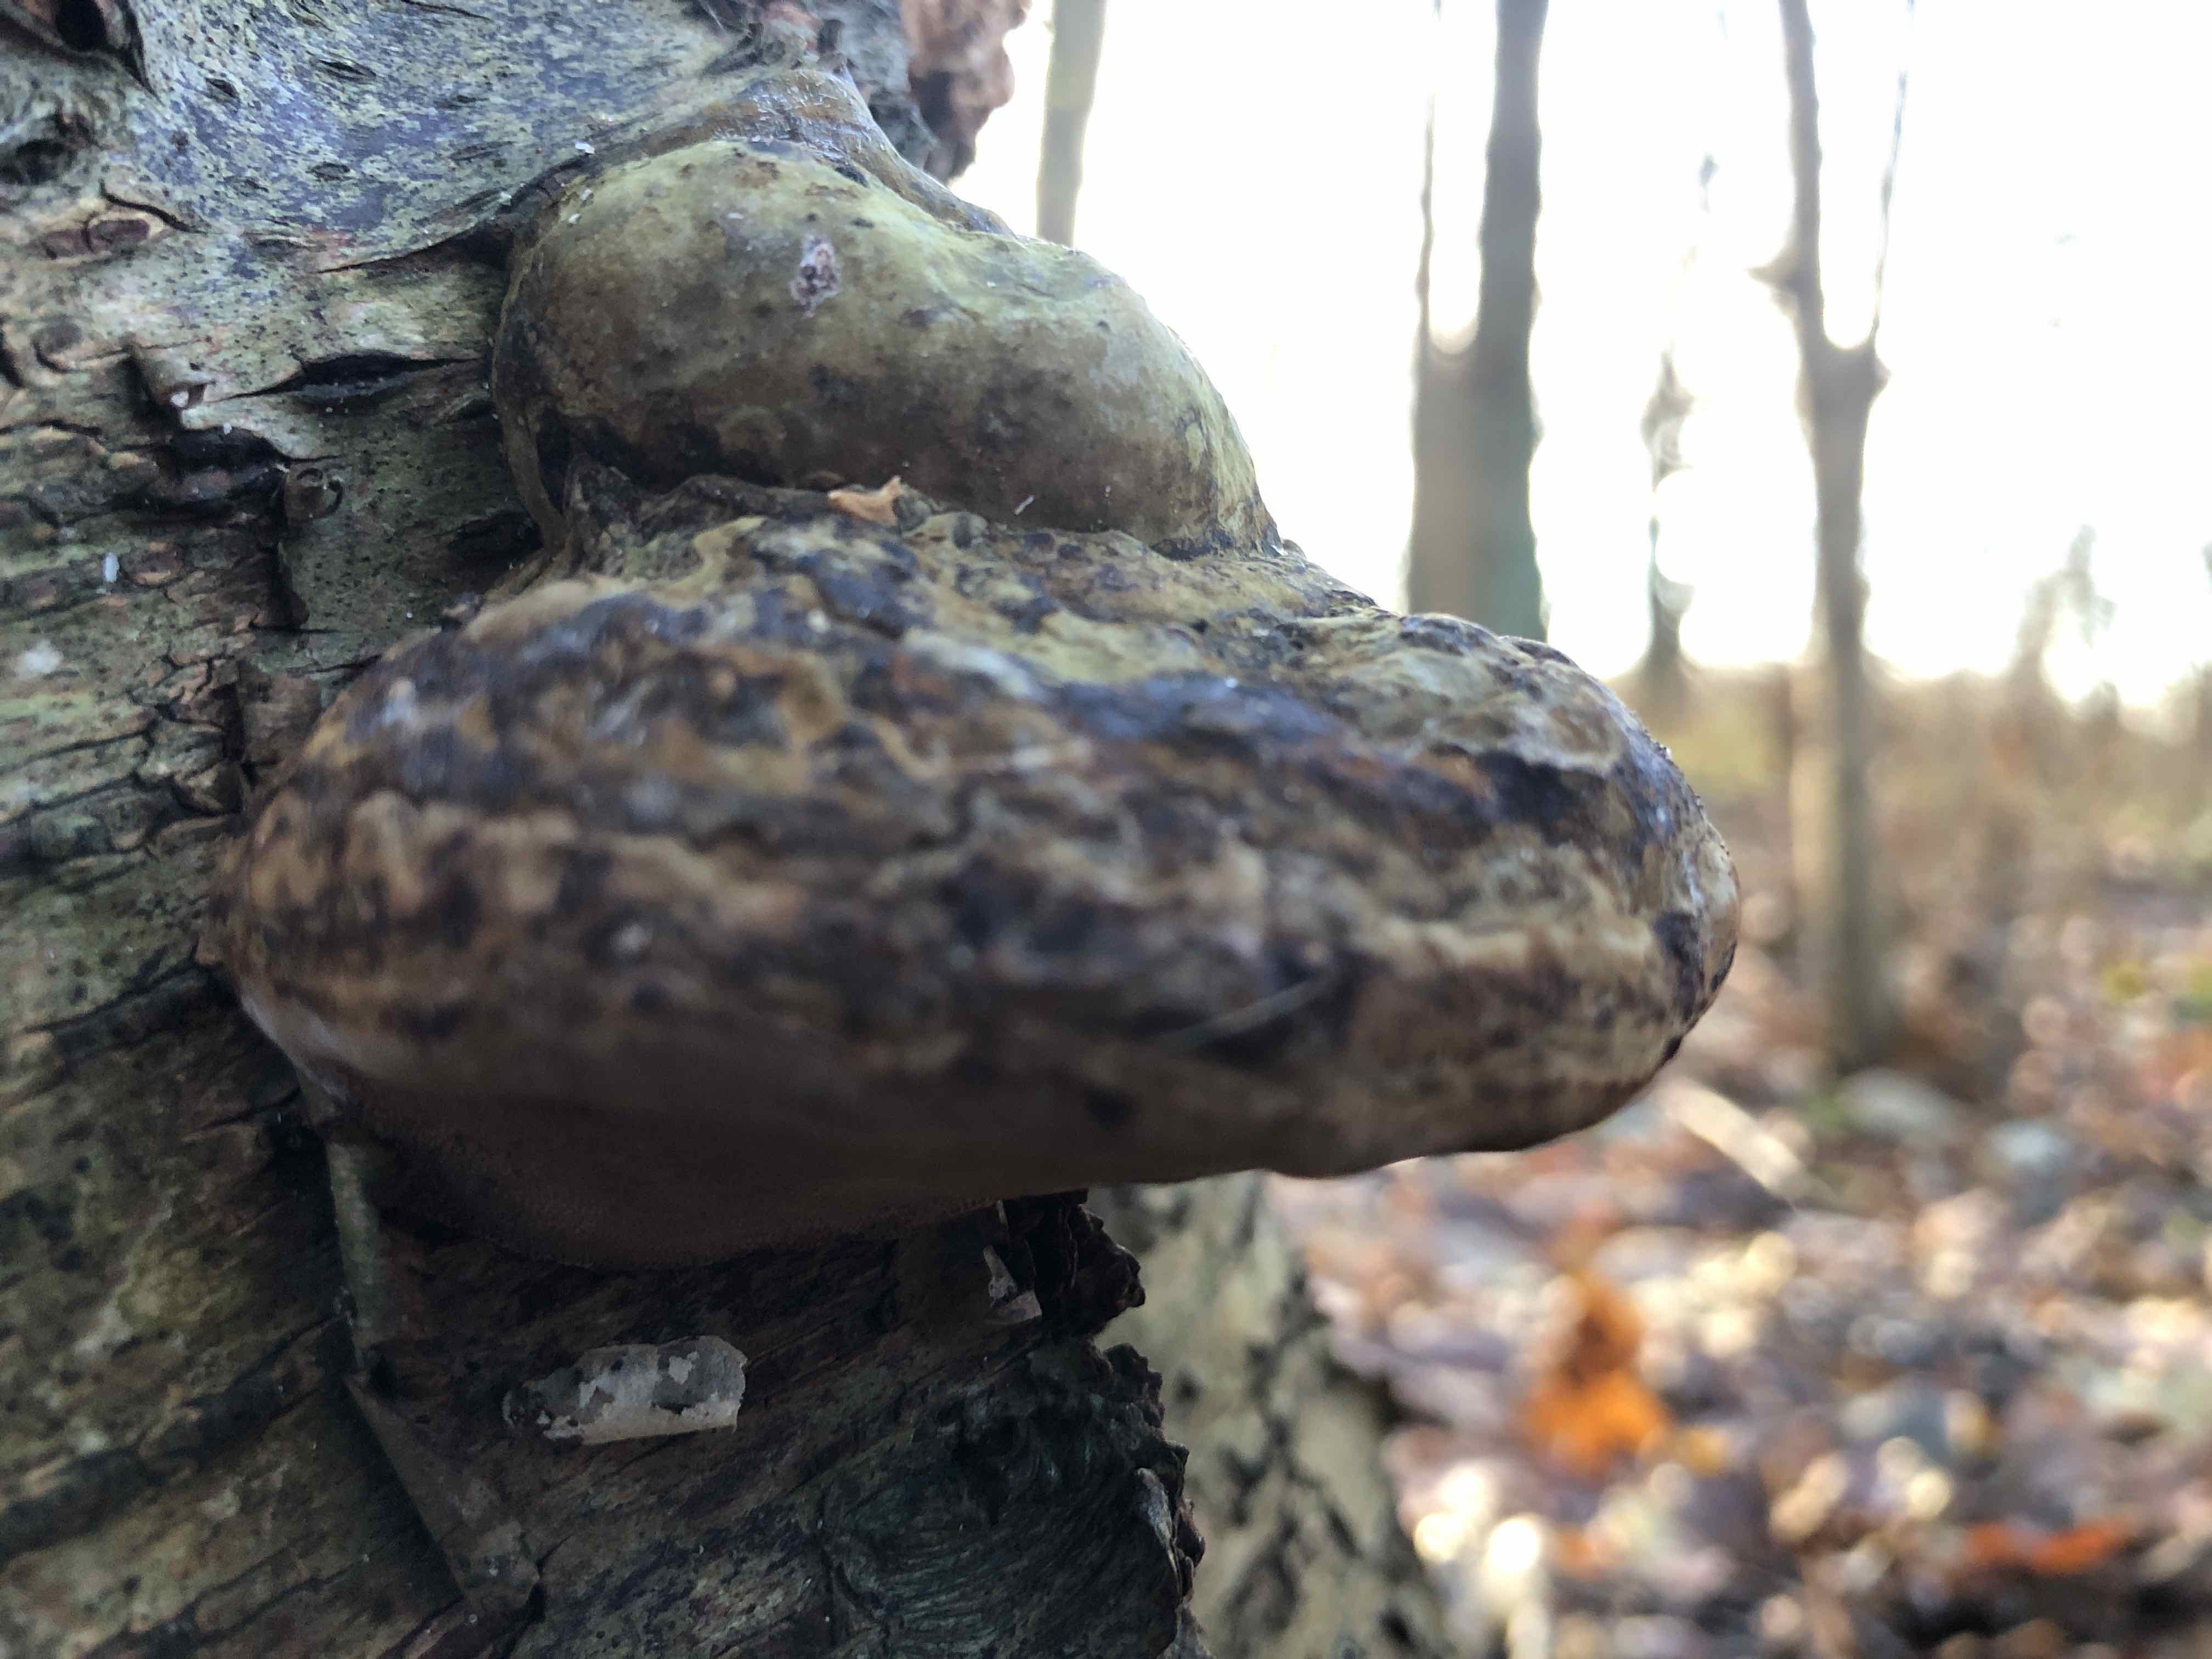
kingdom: Fungi
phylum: Basidiomycota
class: Agaricomycetes
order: Polyporales
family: Polyporaceae
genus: Fomes
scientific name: Fomes fomentarius
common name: tøndersvamp
